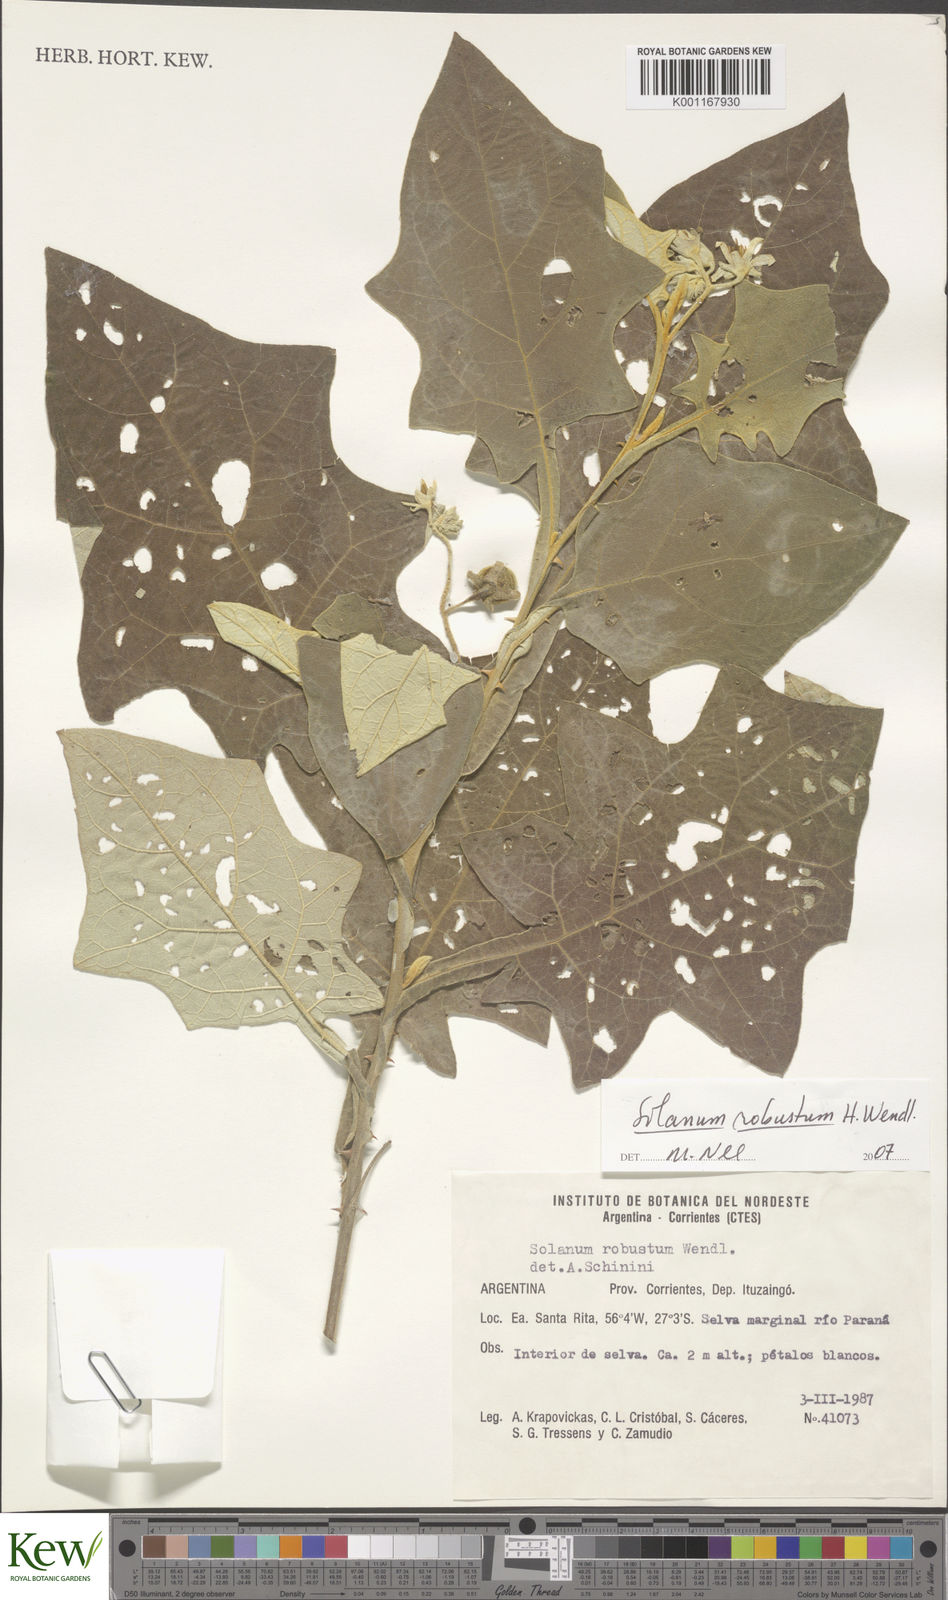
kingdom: Plantae
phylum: Tracheophyta
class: Magnoliopsida
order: Solanales
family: Solanaceae
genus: Solanum
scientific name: Solanum robustum
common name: Shrubby nightshade
